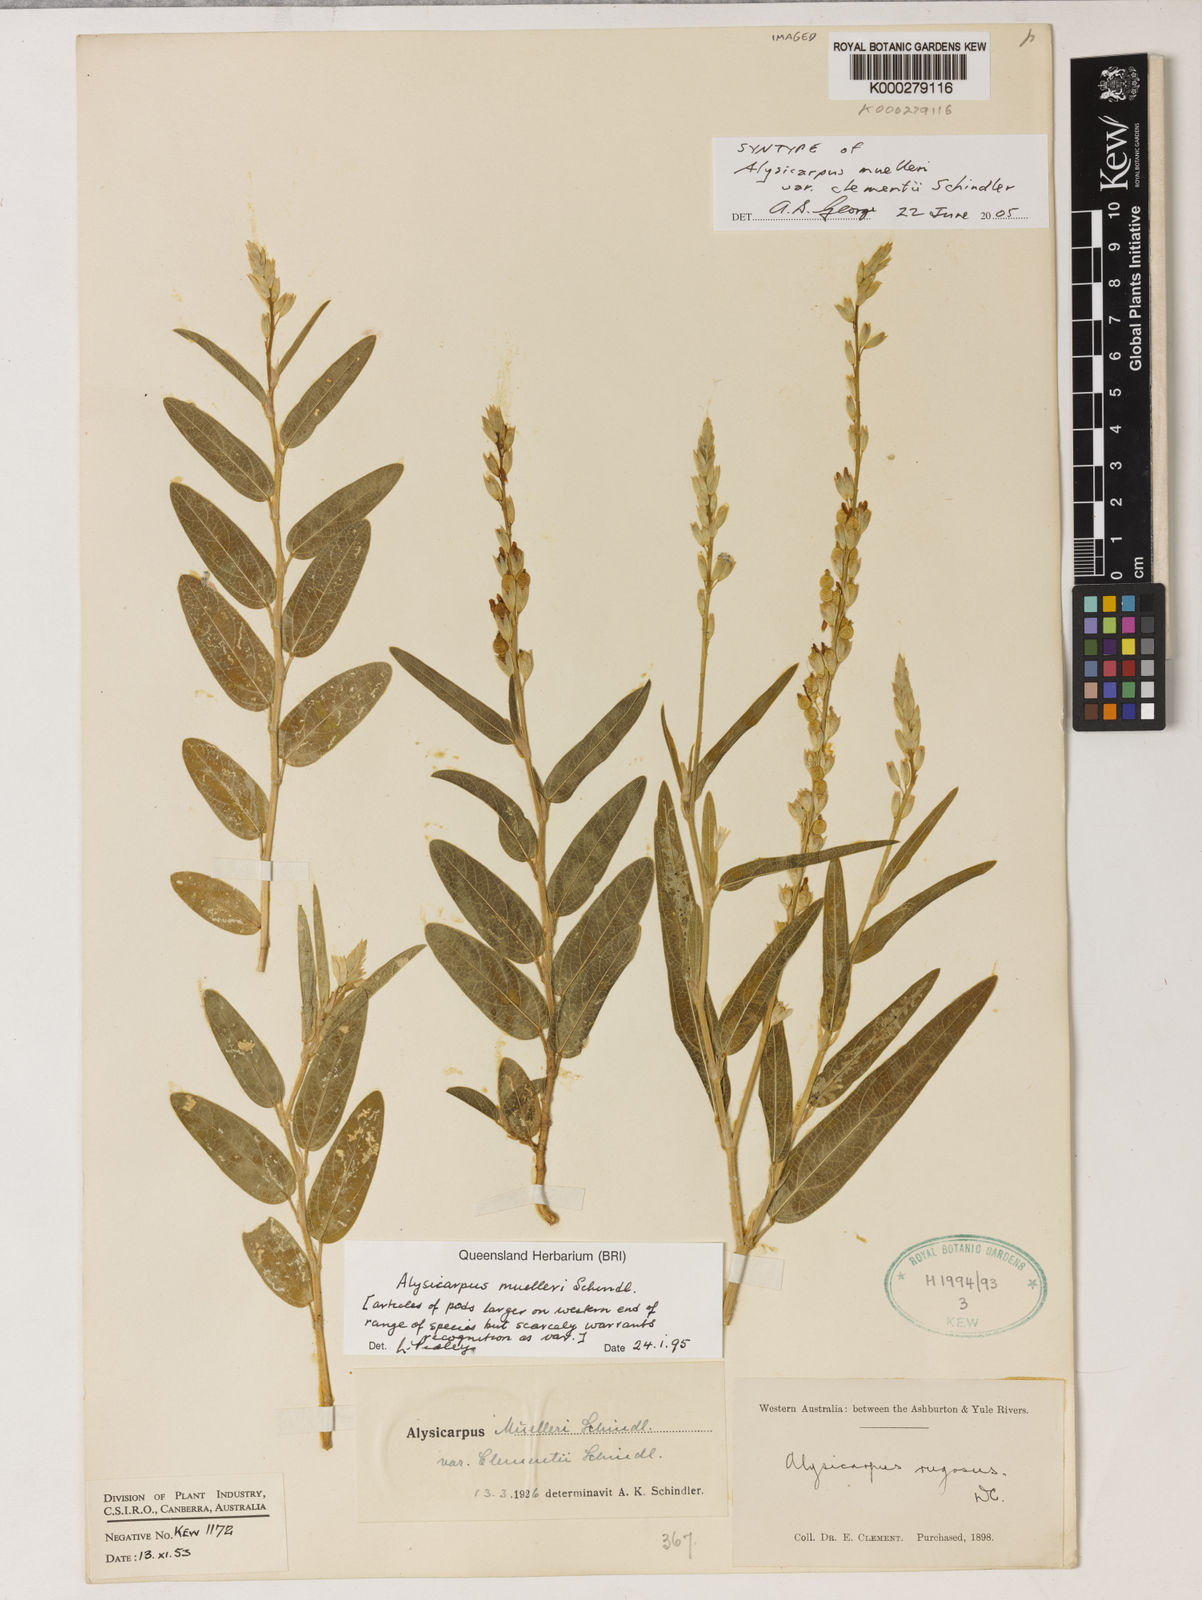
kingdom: Plantae
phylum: Tracheophyta
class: Magnoliopsida
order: Fabales
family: Fabaceae
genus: Alysicarpus
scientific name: Alysicarpus muelleri
